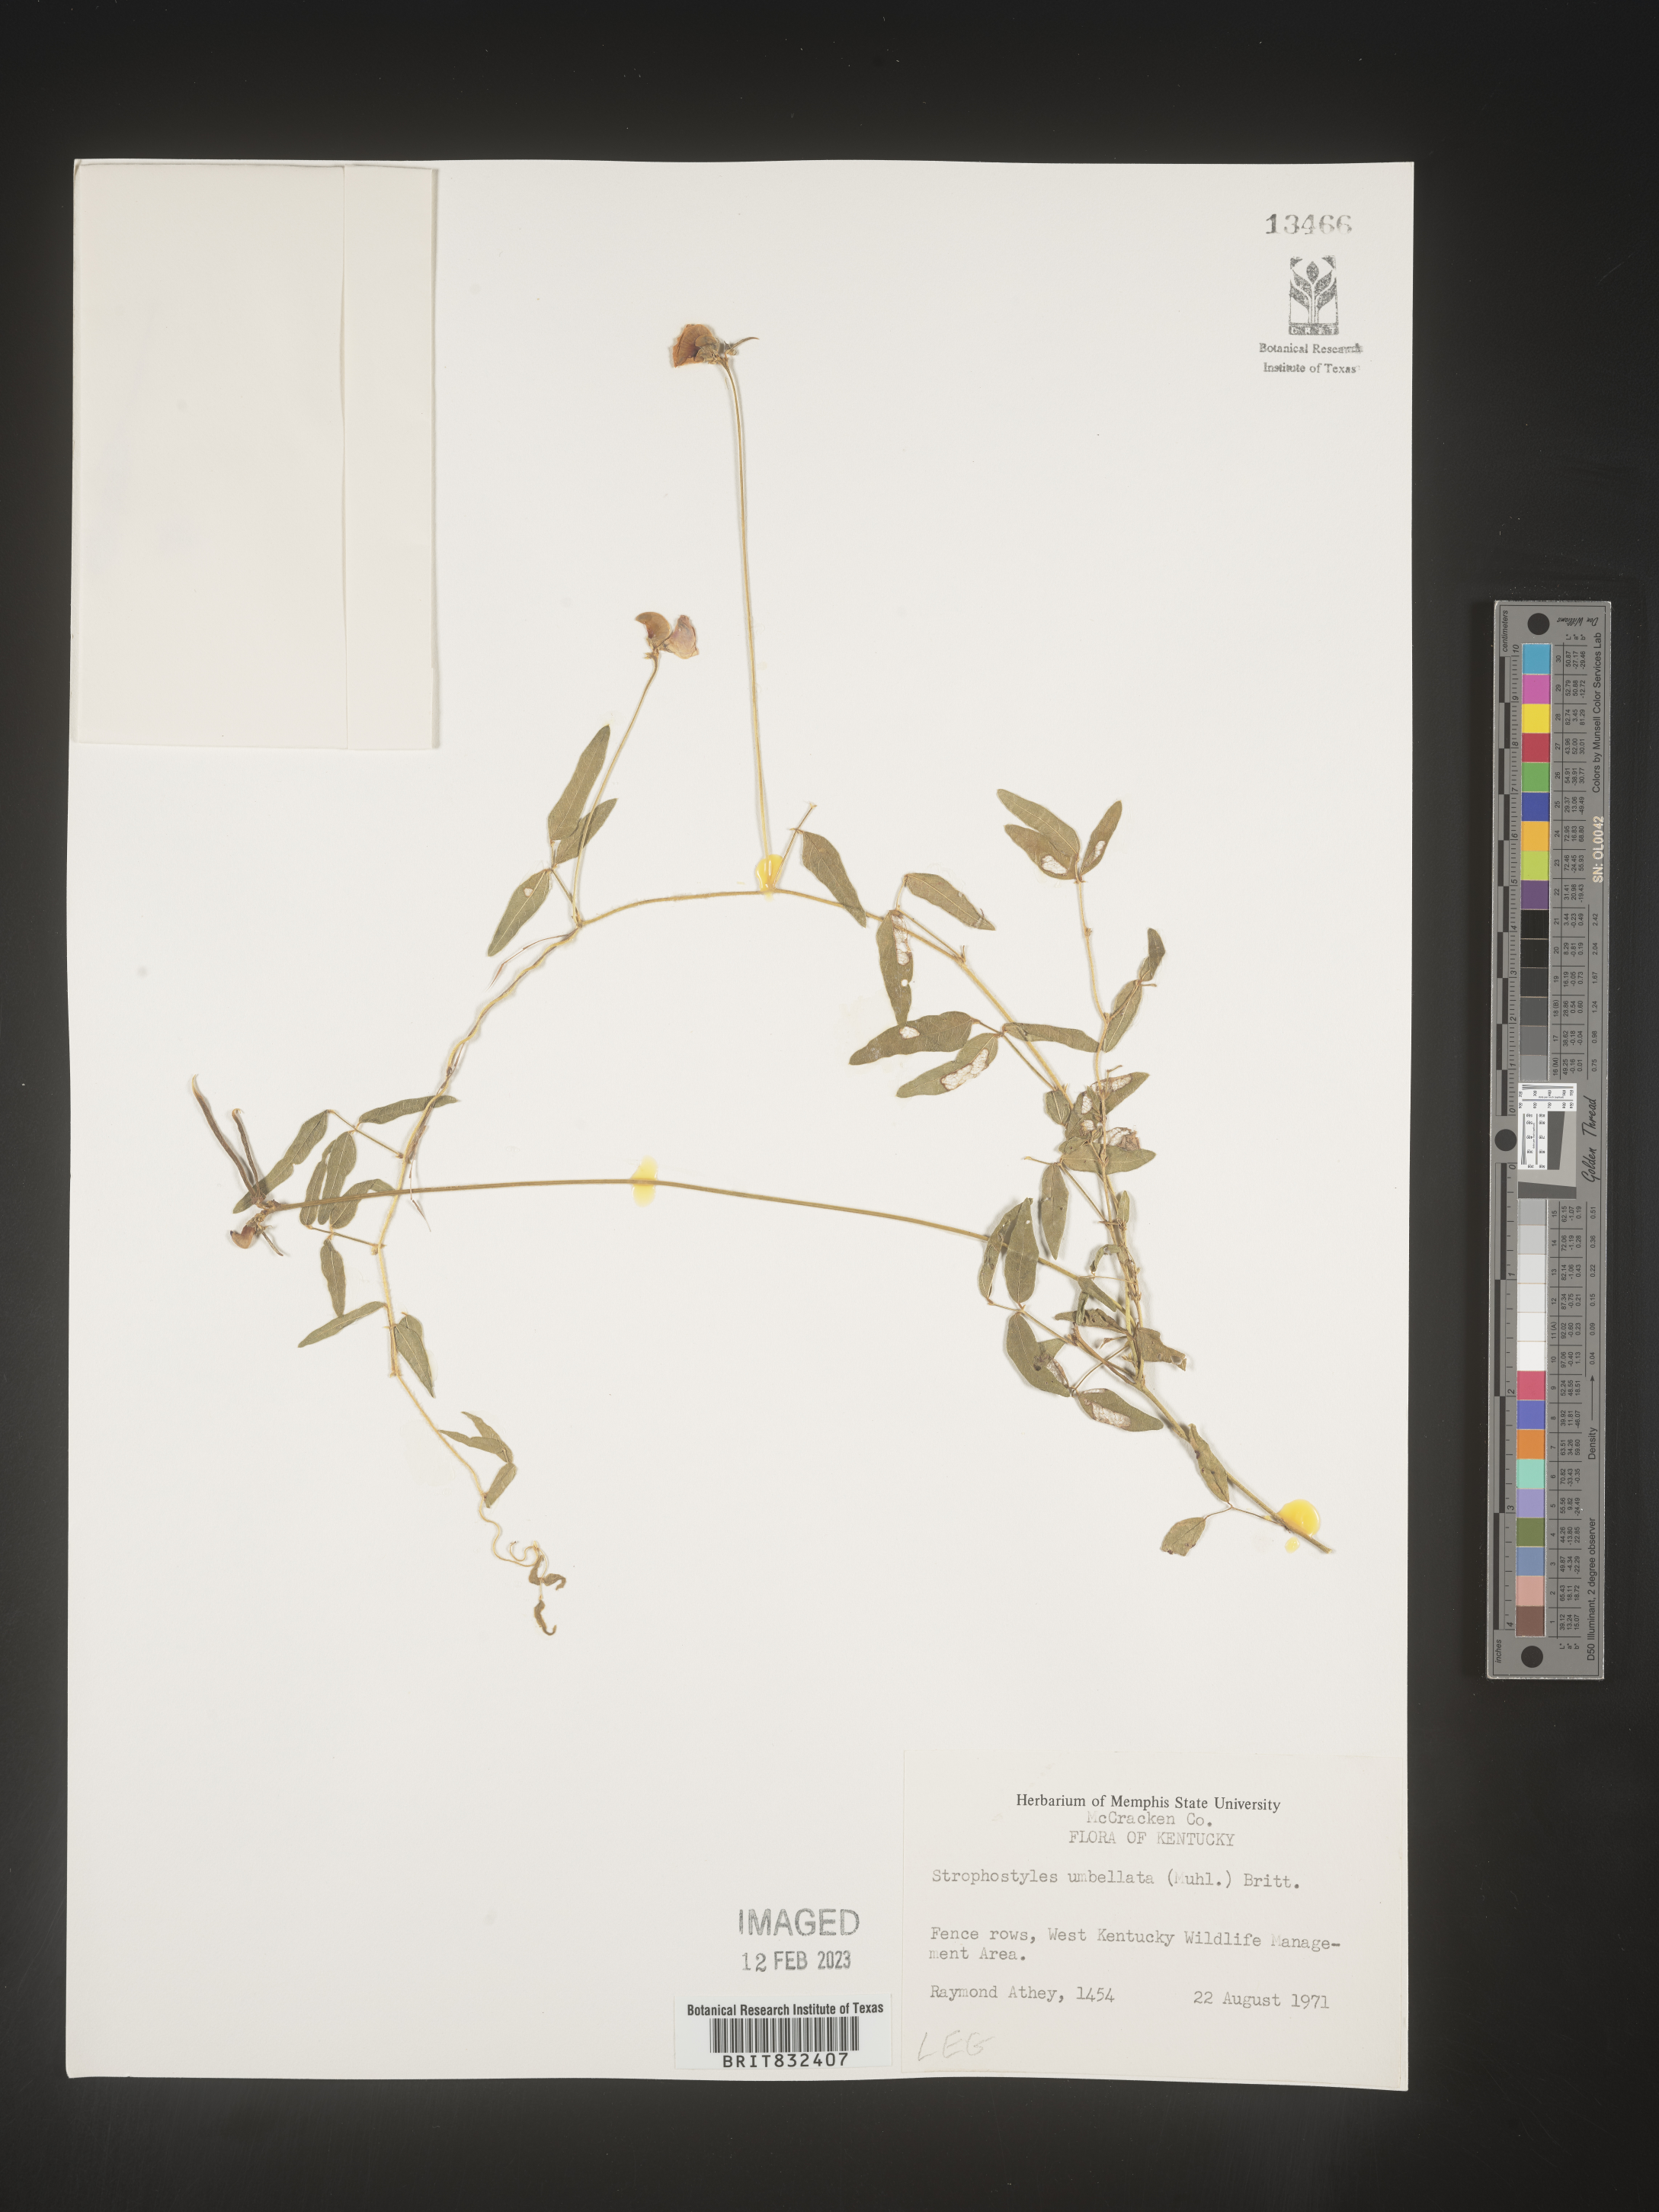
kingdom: Plantae
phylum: Tracheophyta
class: Magnoliopsida
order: Fabales
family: Fabaceae
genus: Strophostyles
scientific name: Strophostyles umbellata
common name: Perennial wild bean
